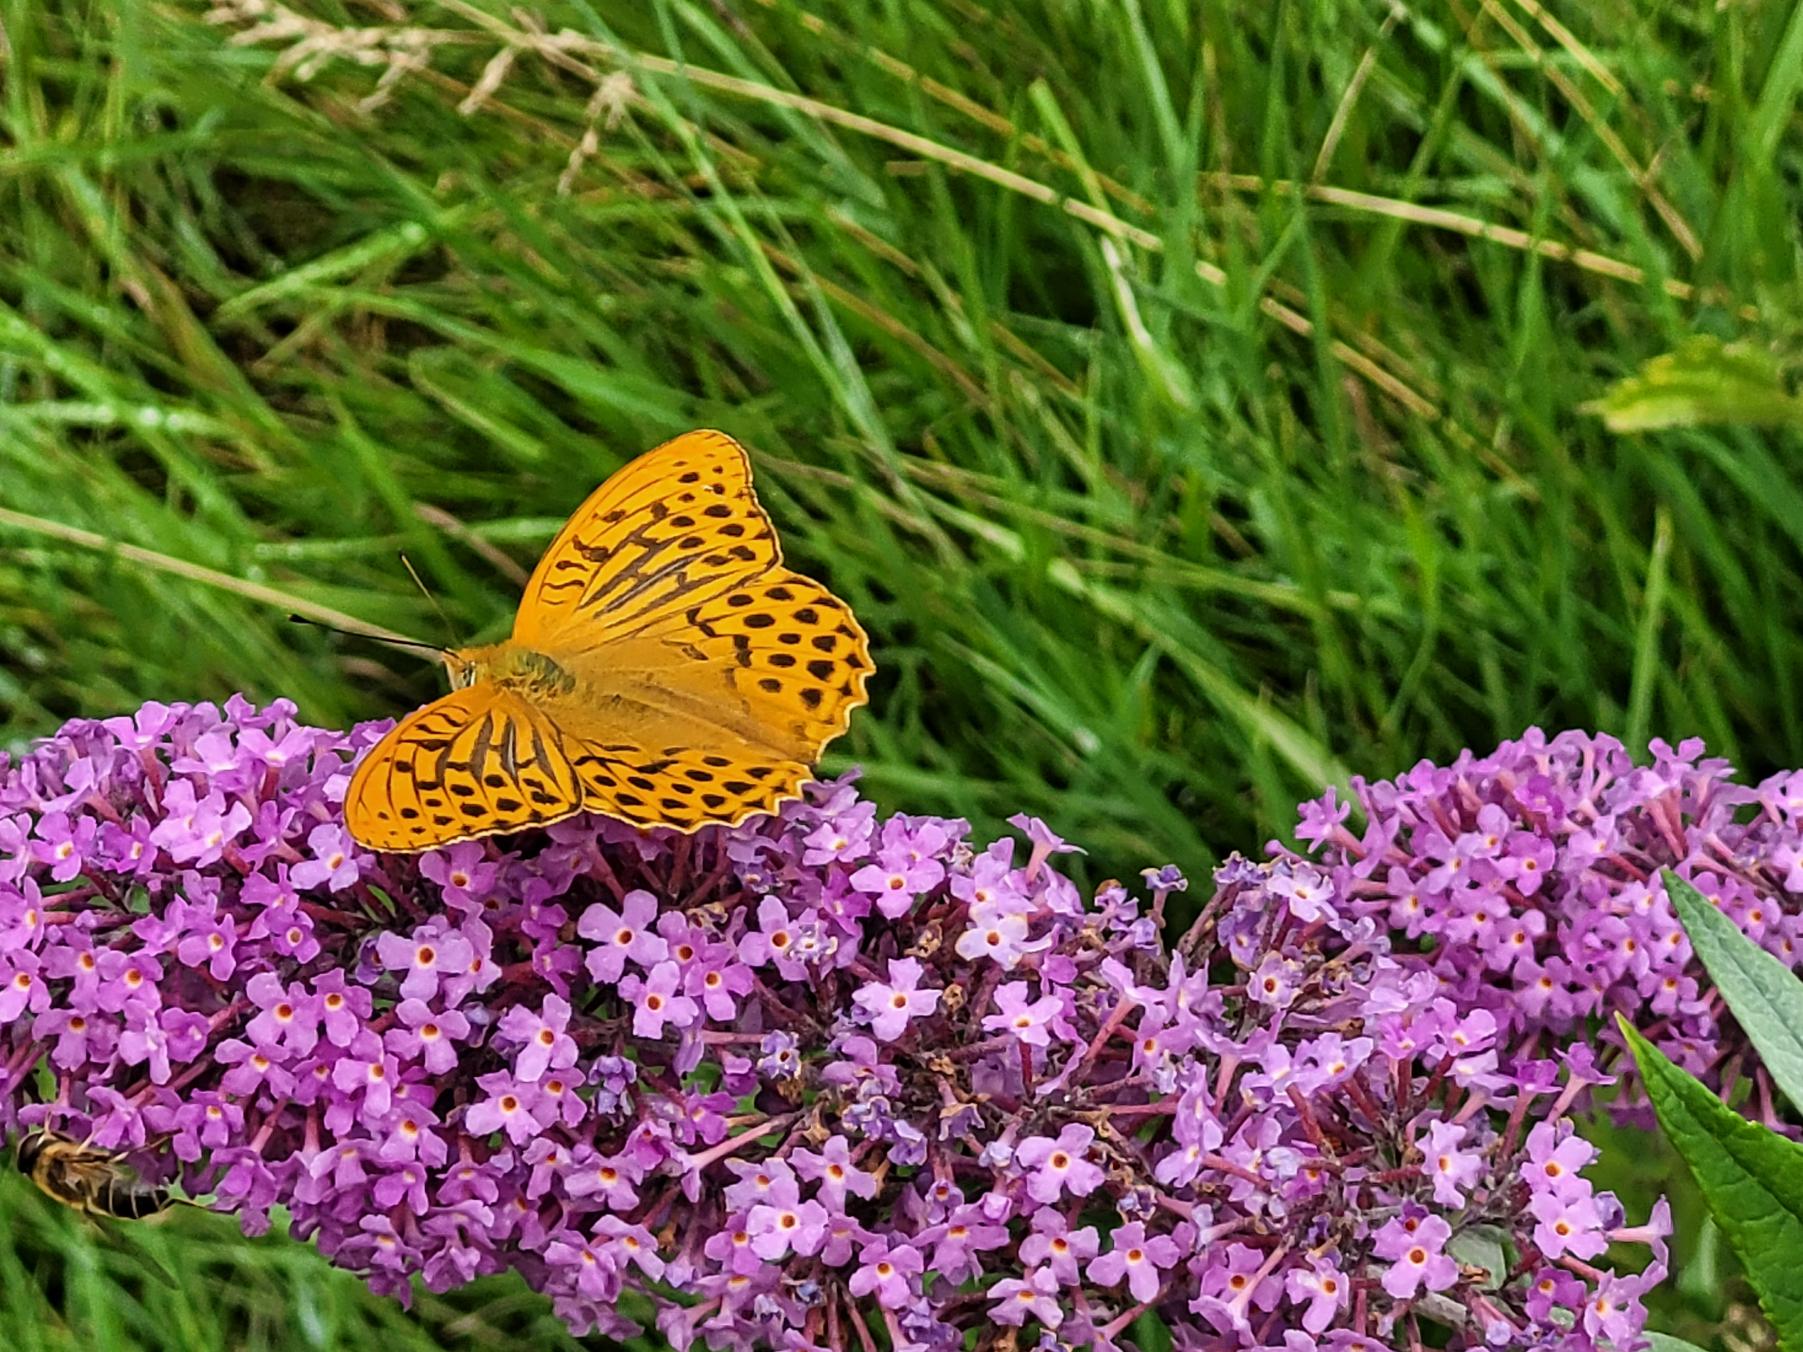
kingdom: Animalia
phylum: Arthropoda
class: Insecta
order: Lepidoptera
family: Nymphalidae
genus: Argynnis
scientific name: Argynnis paphia
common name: Kejserkåbe
